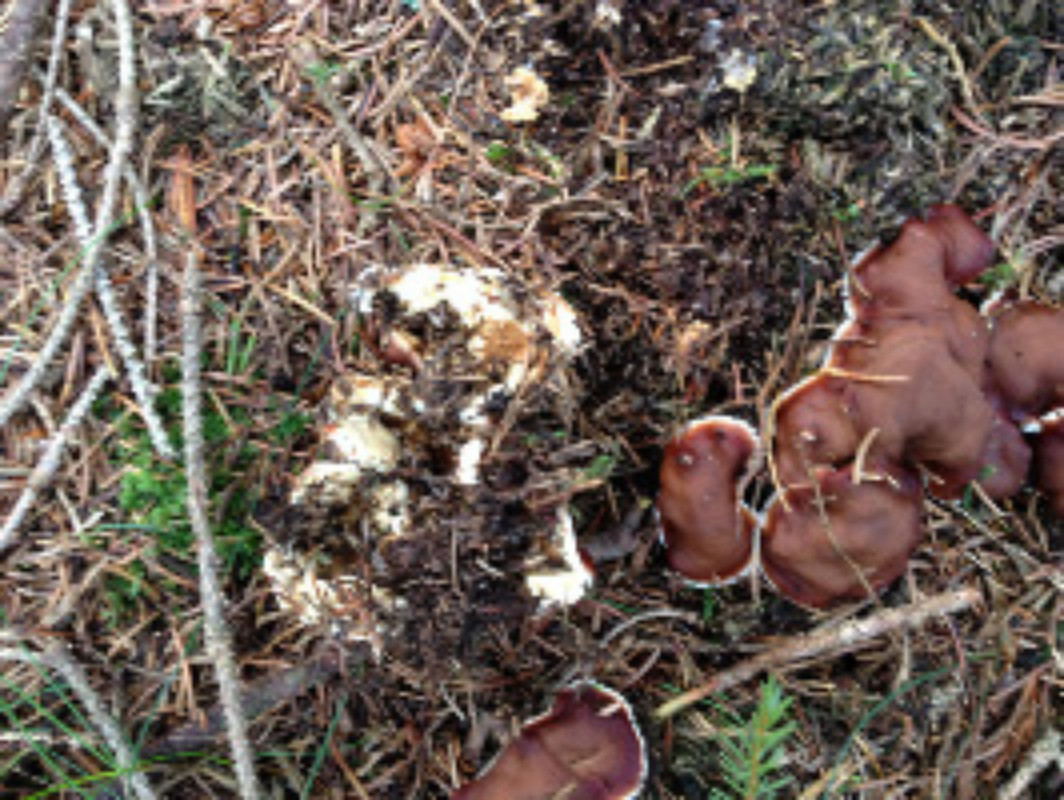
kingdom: Fungi
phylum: Ascomycota
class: Pezizomycetes
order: Pezizales
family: Rhizinaceae
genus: Rhizina
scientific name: Rhizina undulata
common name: rodmorkel
